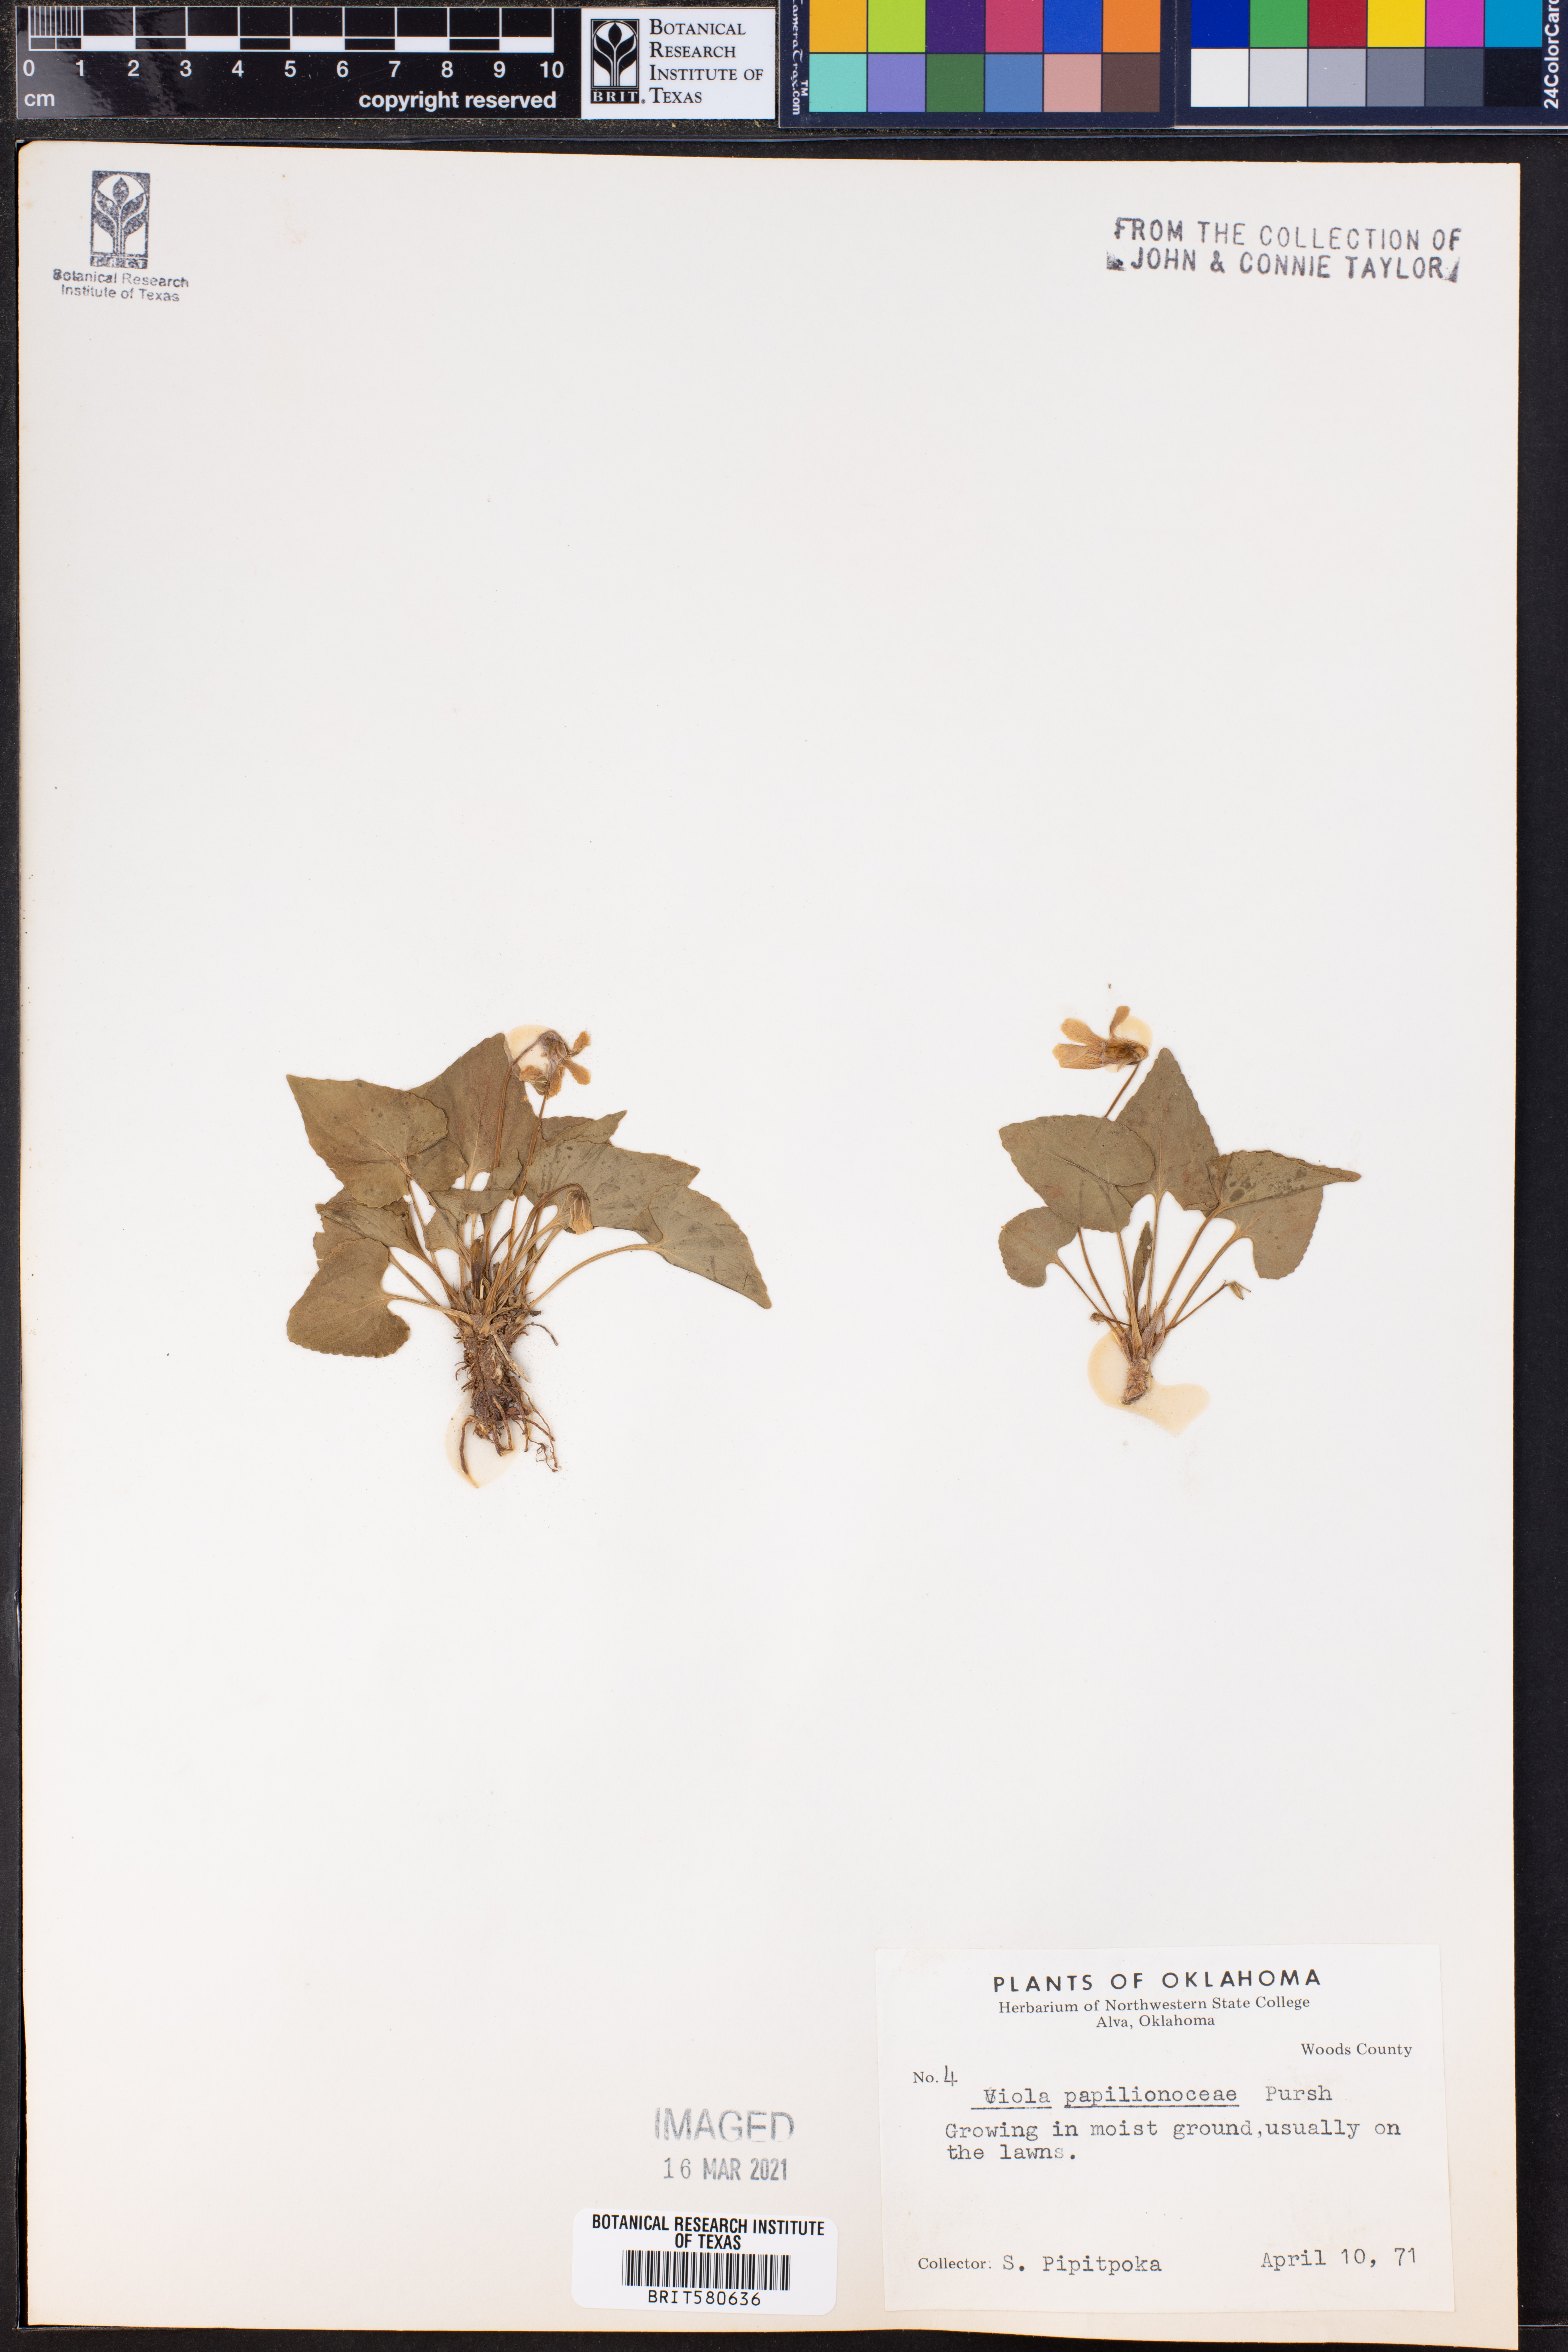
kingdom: Plantae
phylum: Tracheophyta
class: Magnoliopsida
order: Malpighiales
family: Violaceae
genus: Viola
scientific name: Viola sororia
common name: Dooryard violet
